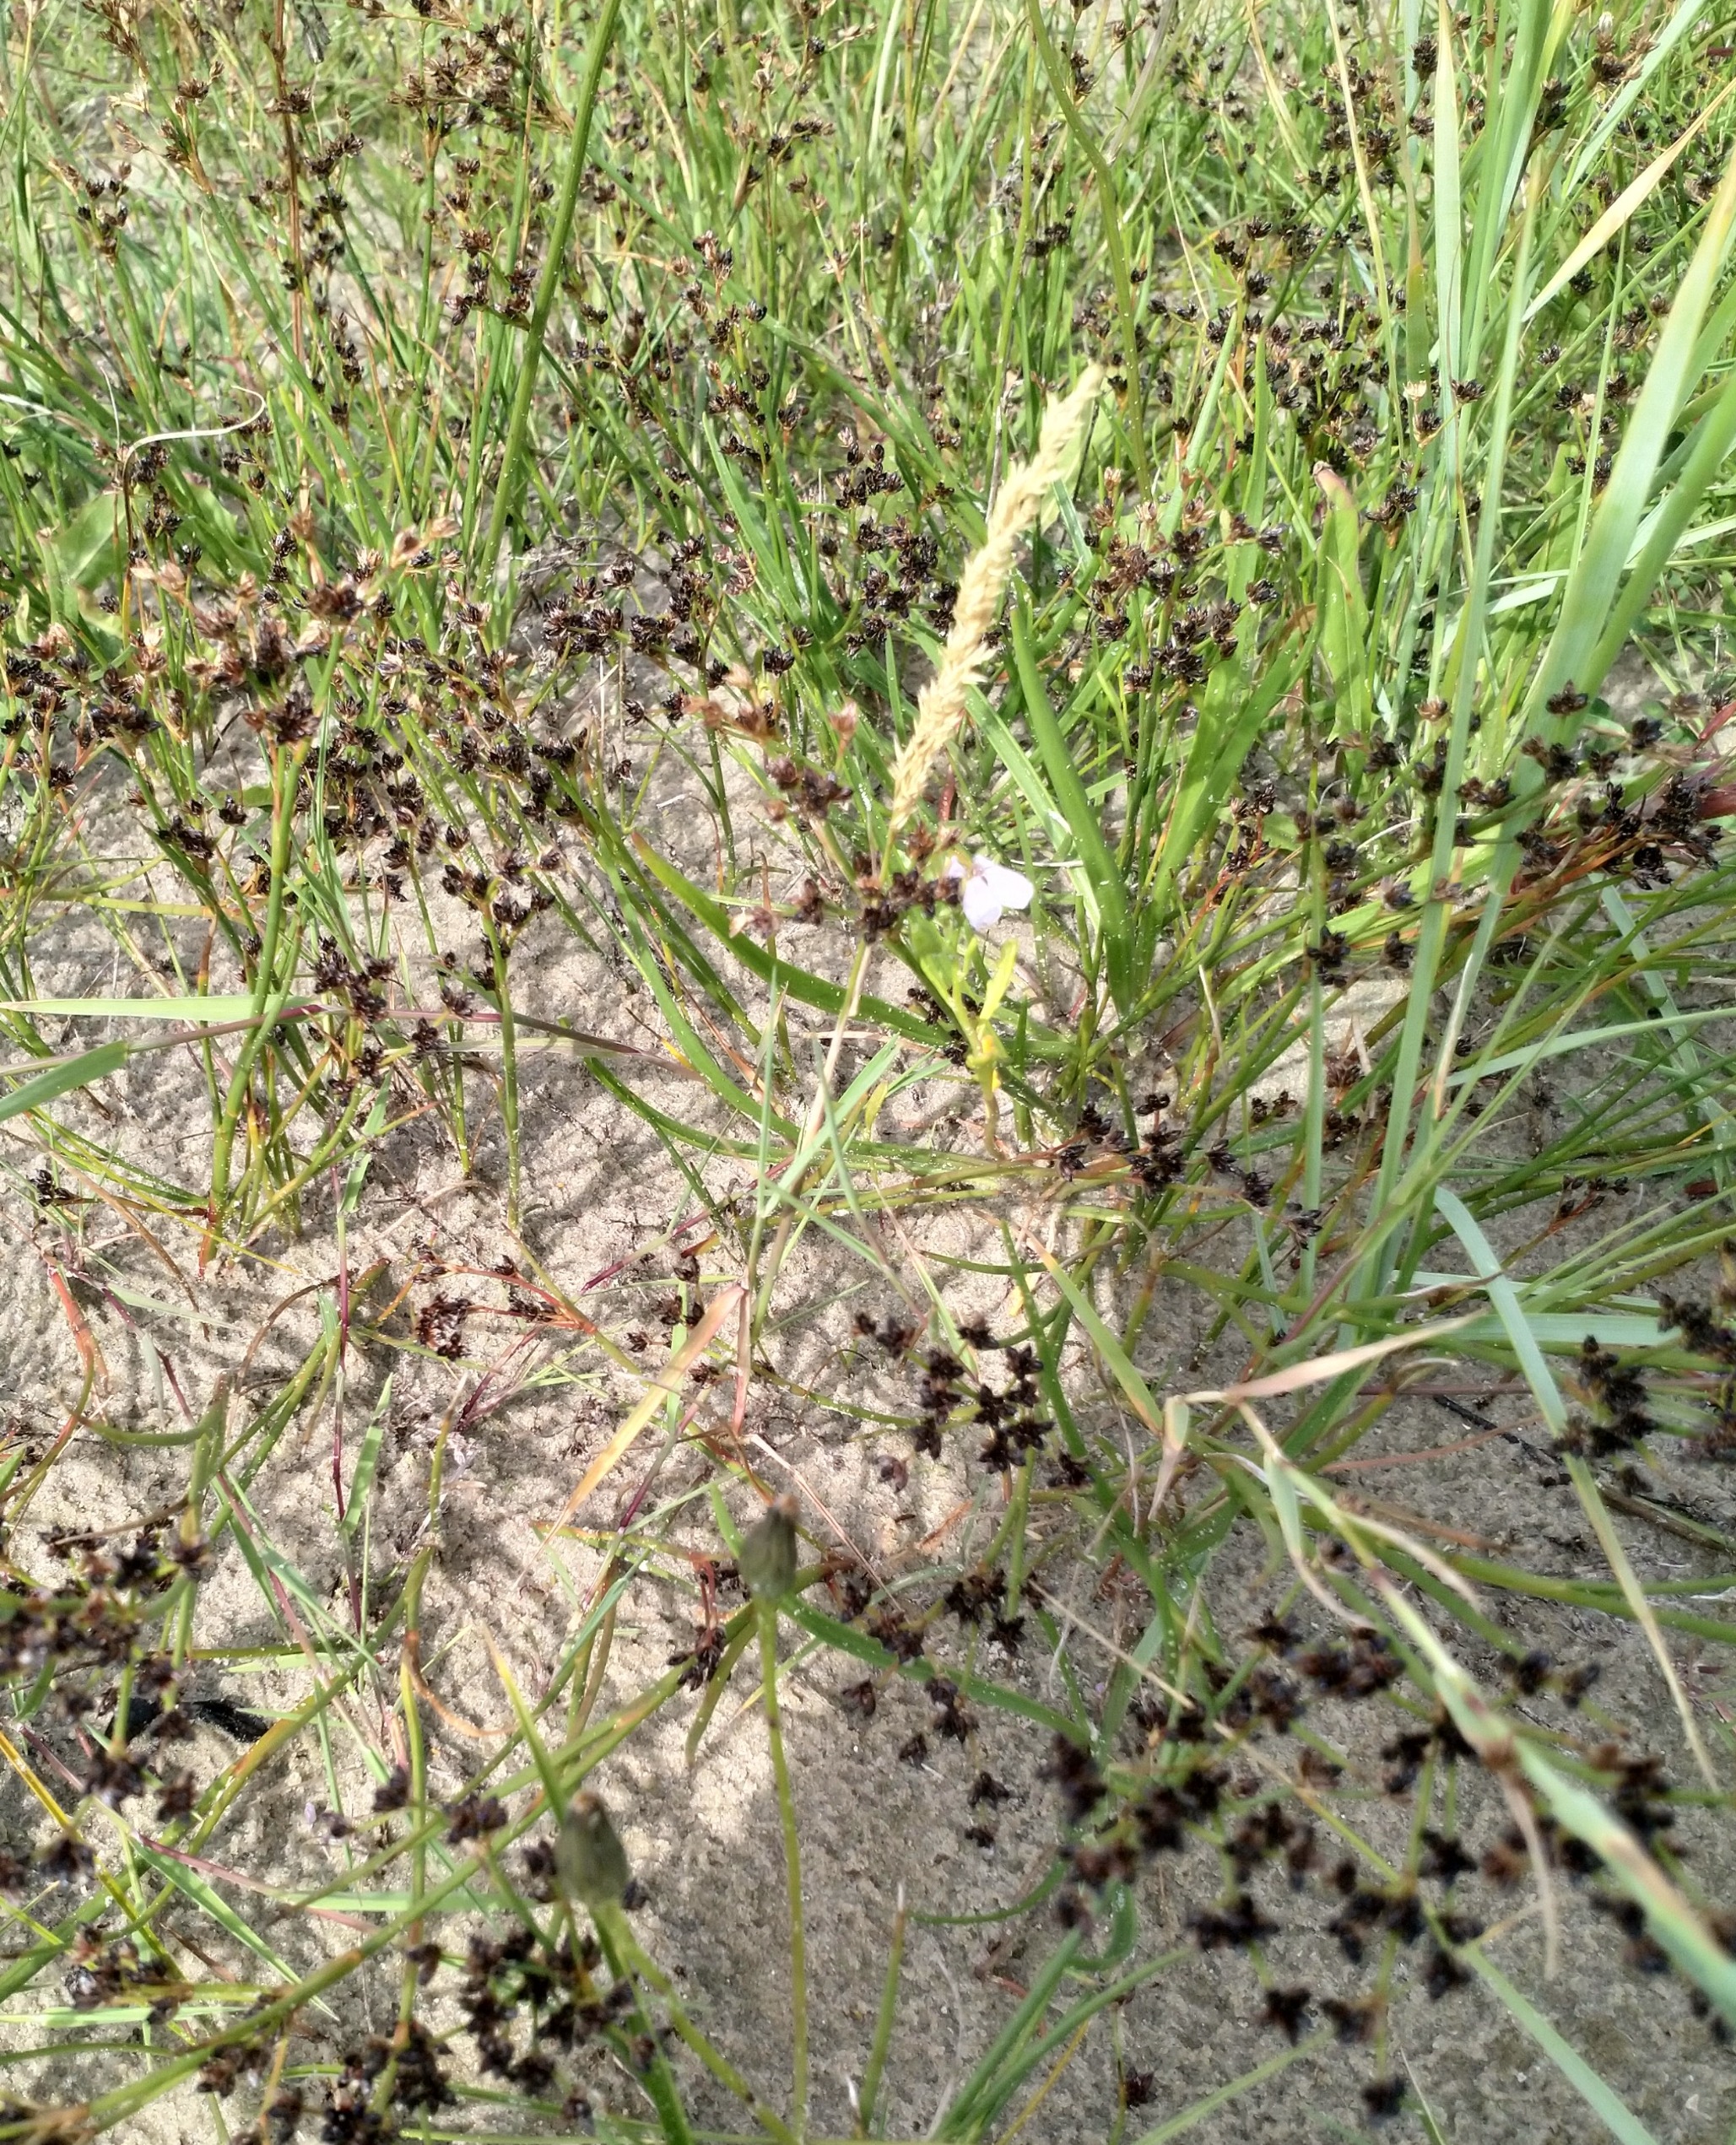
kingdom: Plantae
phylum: Tracheophyta
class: Liliopsida
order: Poales
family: Juncaceae
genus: Juncus
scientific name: Juncus articulatus
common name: Glanskapslet siv
